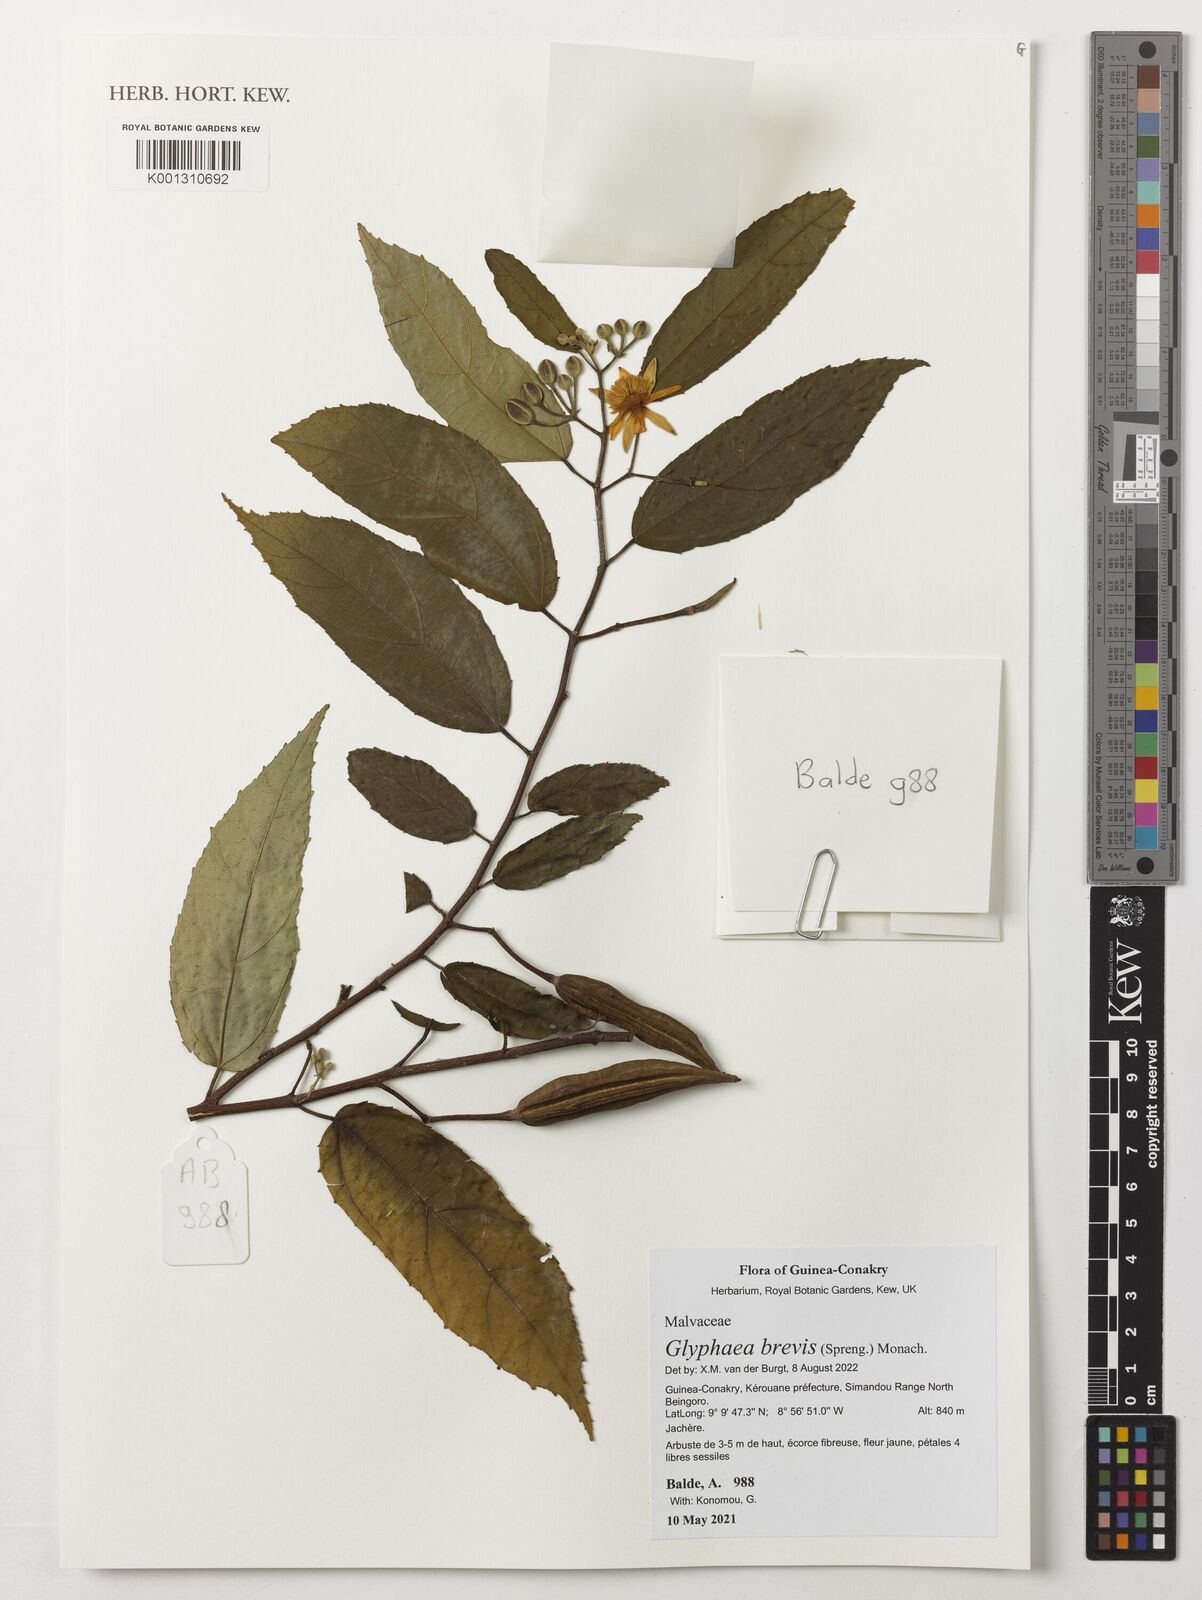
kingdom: Plantae
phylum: Tracheophyta
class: Magnoliopsida
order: Malvales
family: Malvaceae
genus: Glyphaea
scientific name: Glyphaea brevis
